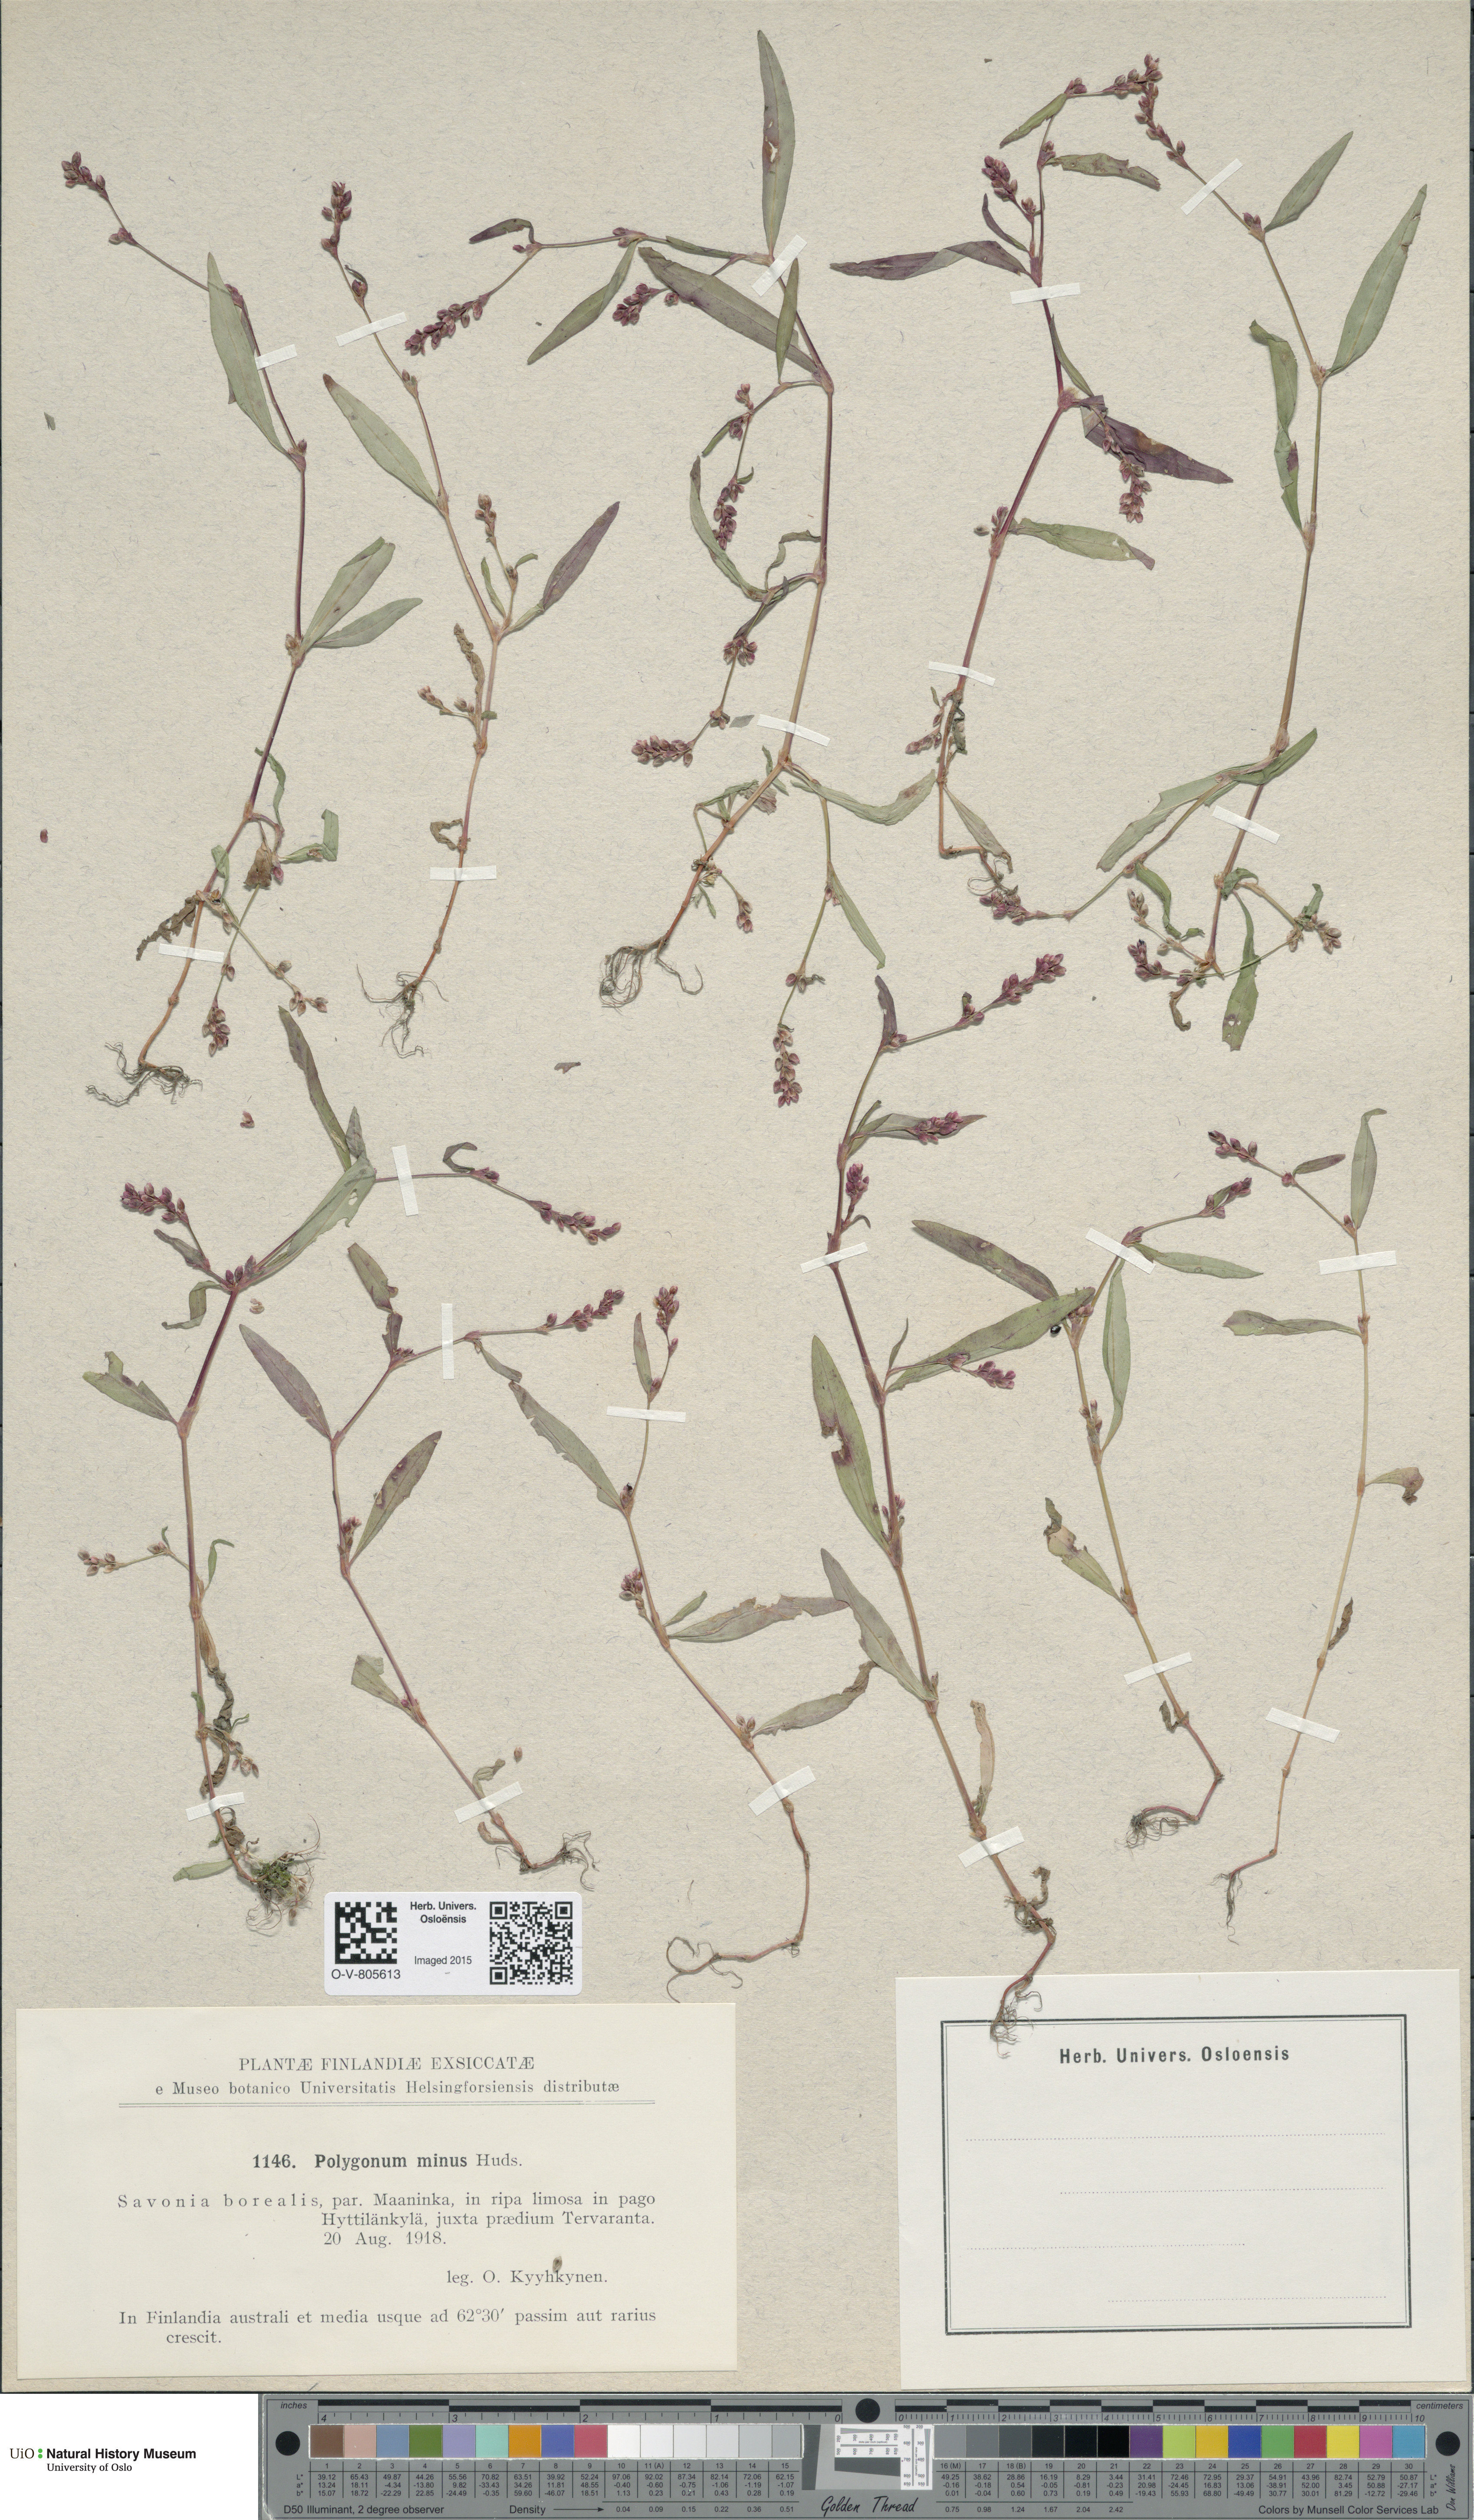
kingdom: Plantae
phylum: Tracheophyta
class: Magnoliopsida
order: Caryophyllales
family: Polygonaceae
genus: Persicaria
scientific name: Persicaria minor
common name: Small water-pepper
